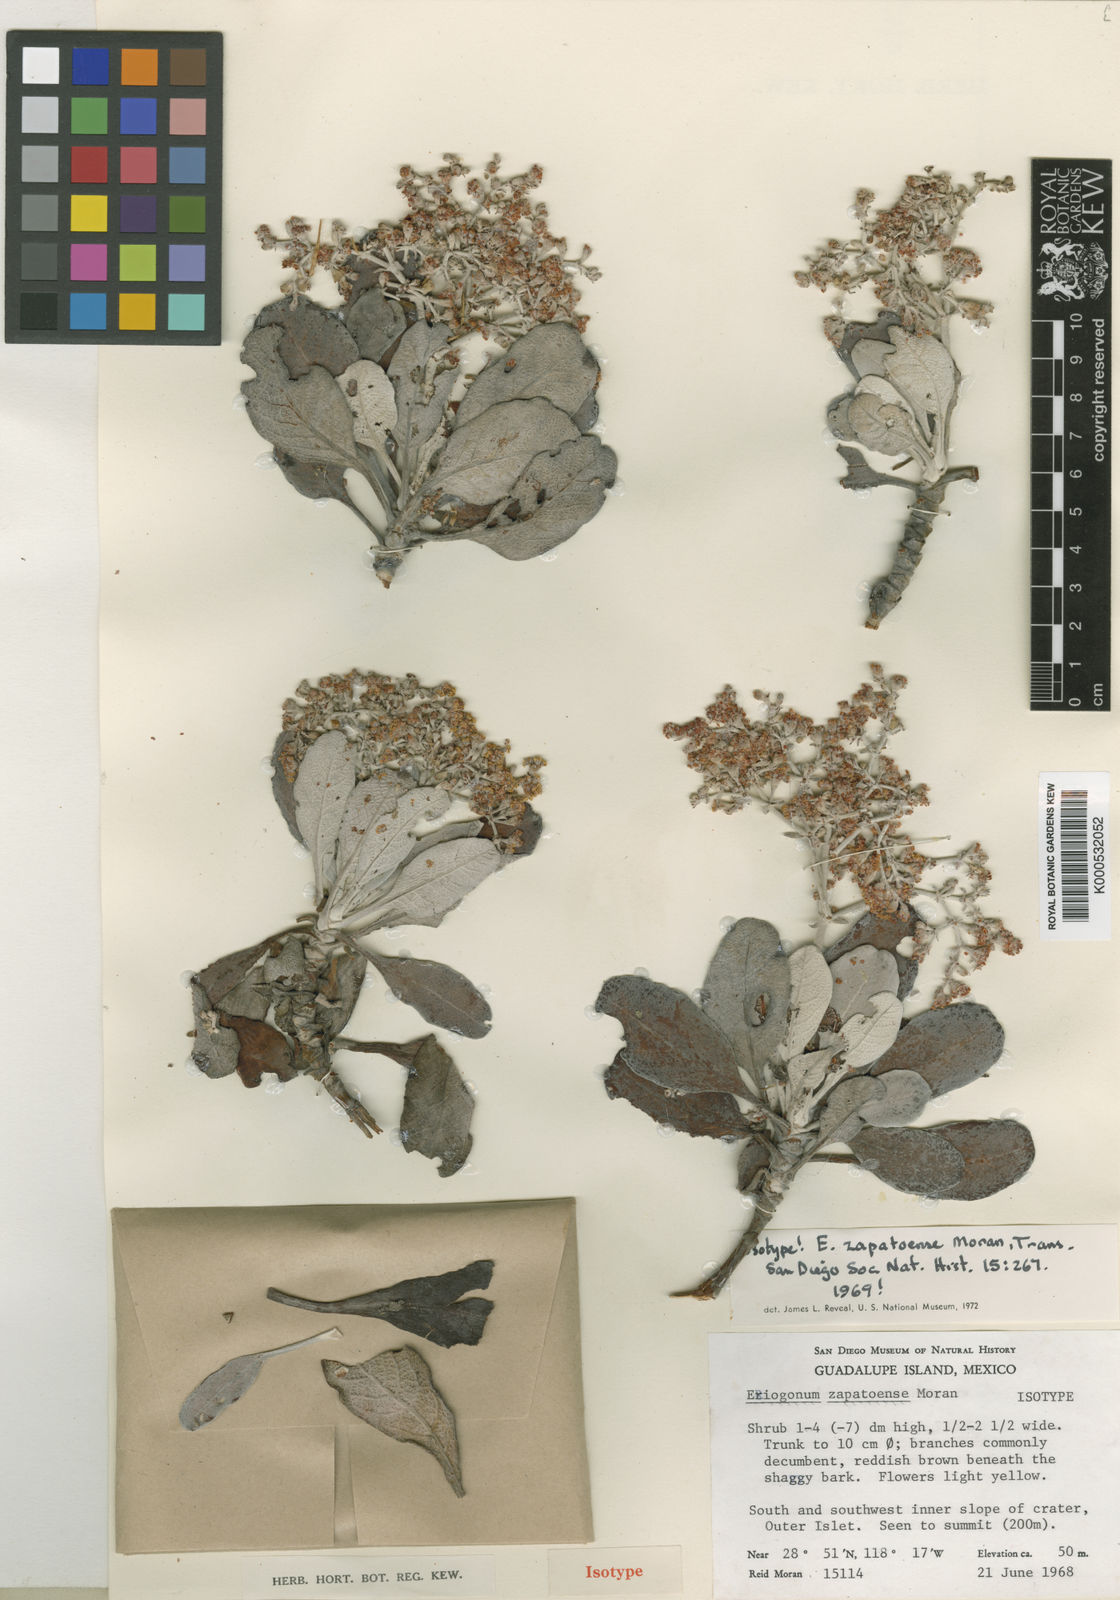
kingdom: Plantae
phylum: Tracheophyta
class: Magnoliopsida
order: Caryophyllales
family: Polygonaceae
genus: Eriogonum
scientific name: Eriogonum zapatoense
